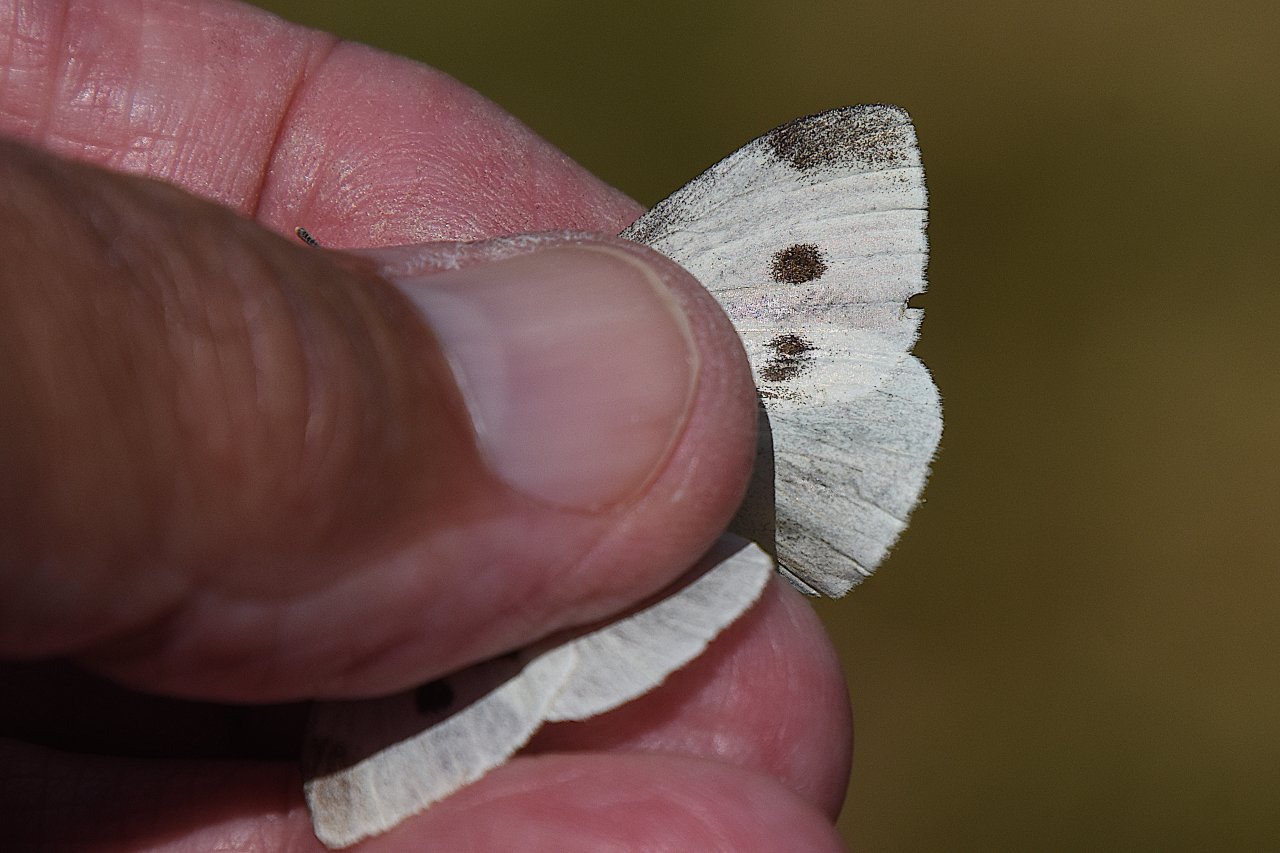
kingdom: Animalia
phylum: Arthropoda
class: Insecta
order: Lepidoptera
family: Pieridae
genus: Pieris
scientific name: Pieris rapae
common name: Cabbage White
